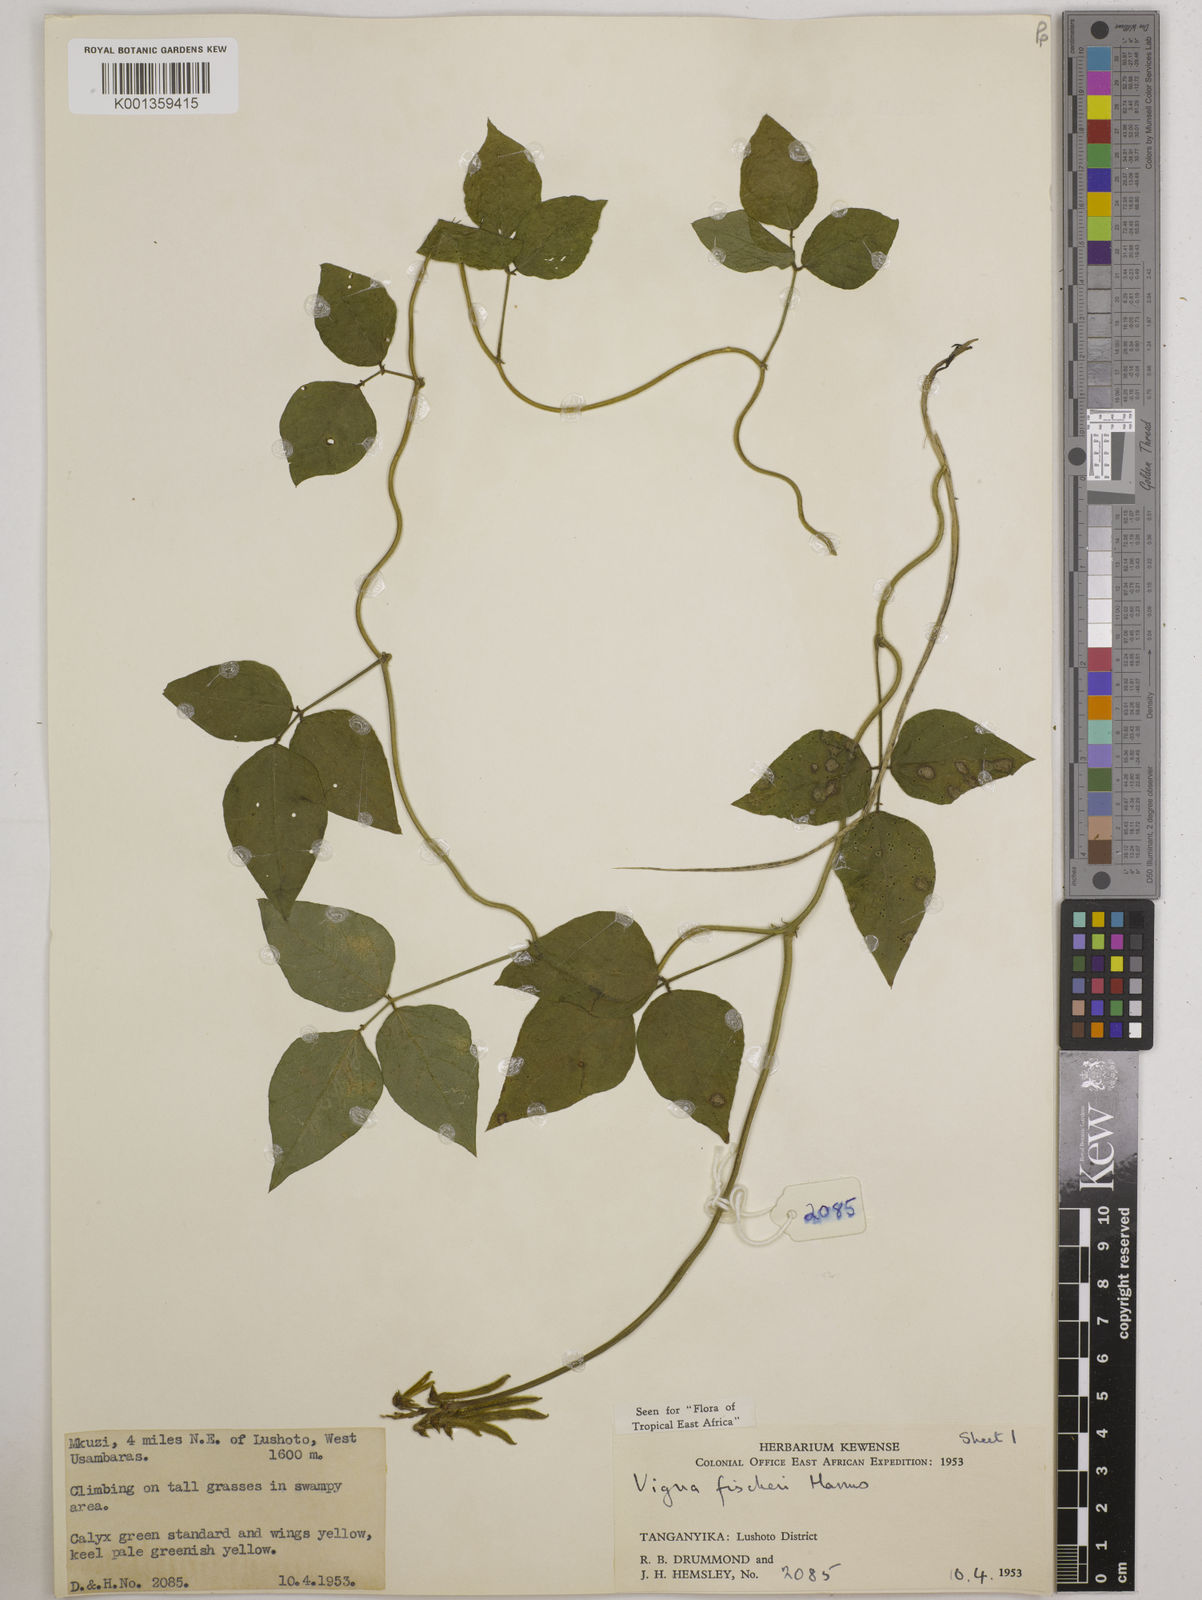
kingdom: Plantae
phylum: Tracheophyta
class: Magnoliopsida
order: Fabales
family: Fabaceae
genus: Vigna
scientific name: Vigna fischeri
